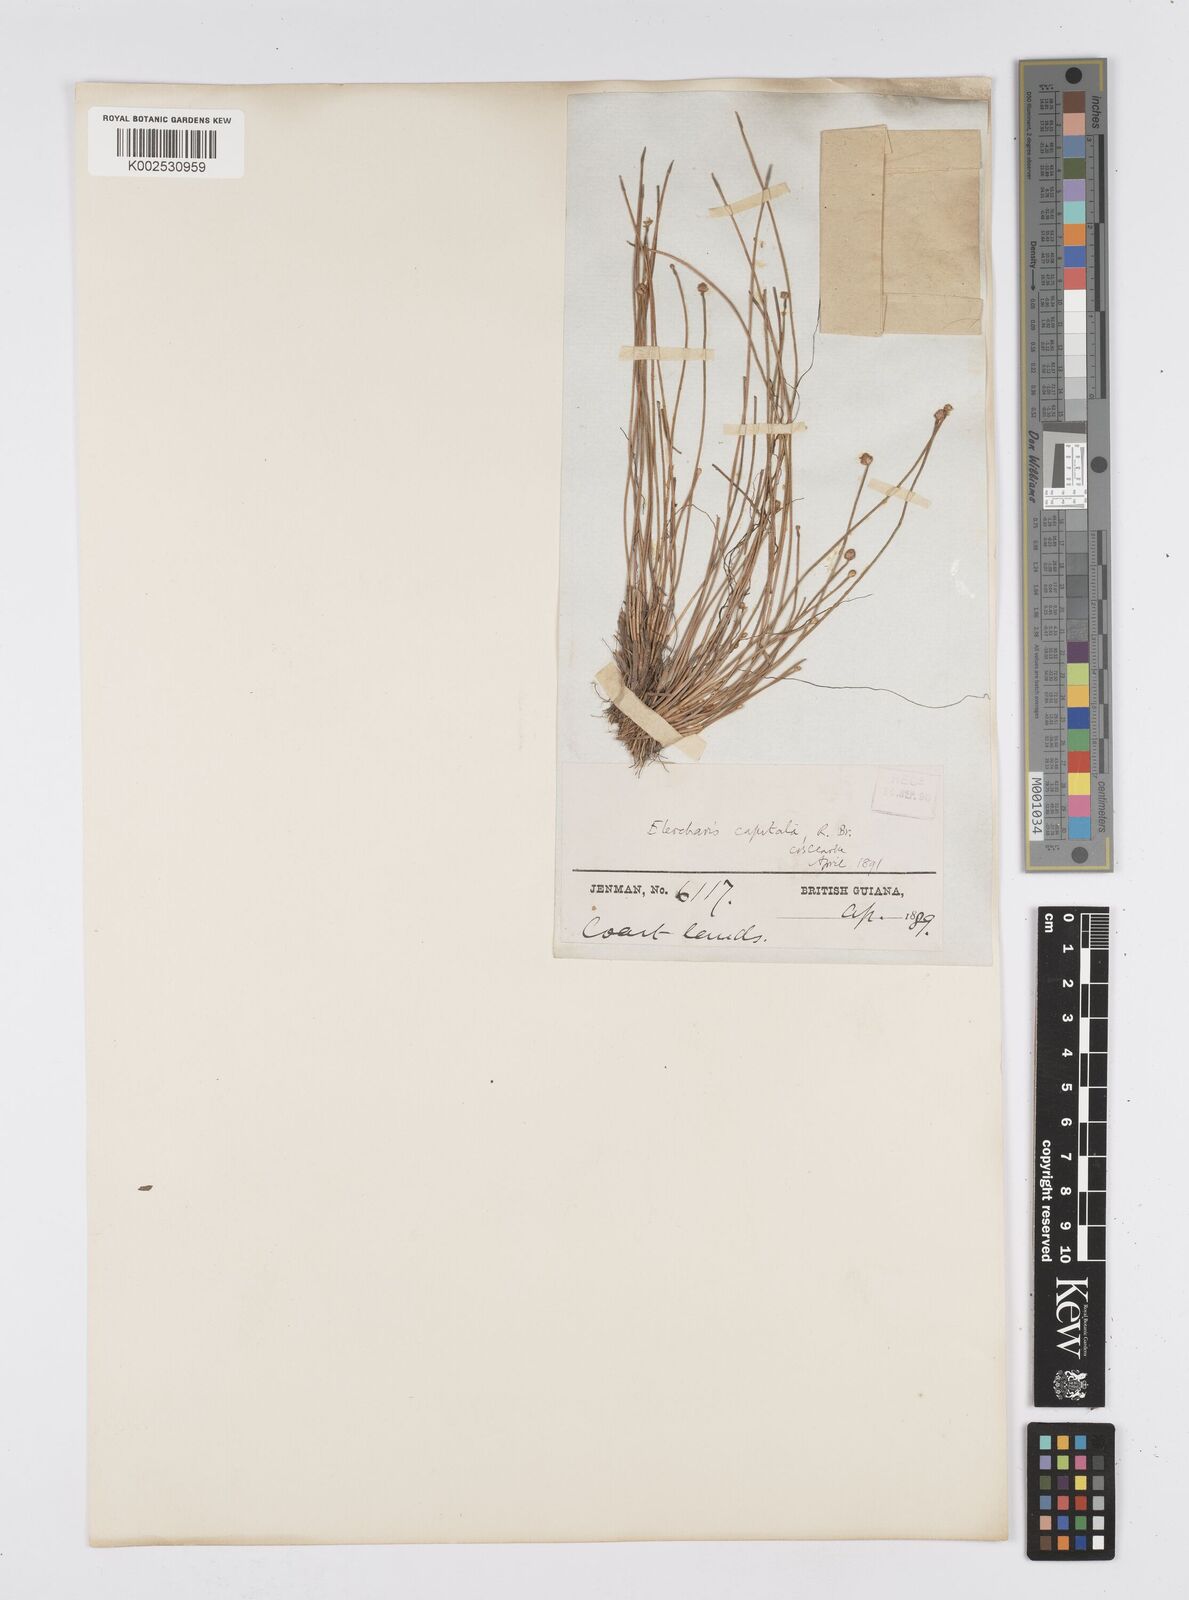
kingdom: Plantae
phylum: Tracheophyta
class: Liliopsida
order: Poales
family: Cyperaceae
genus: Eleocharis
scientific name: Eleocharis geniculata
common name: Canada spikesedge
